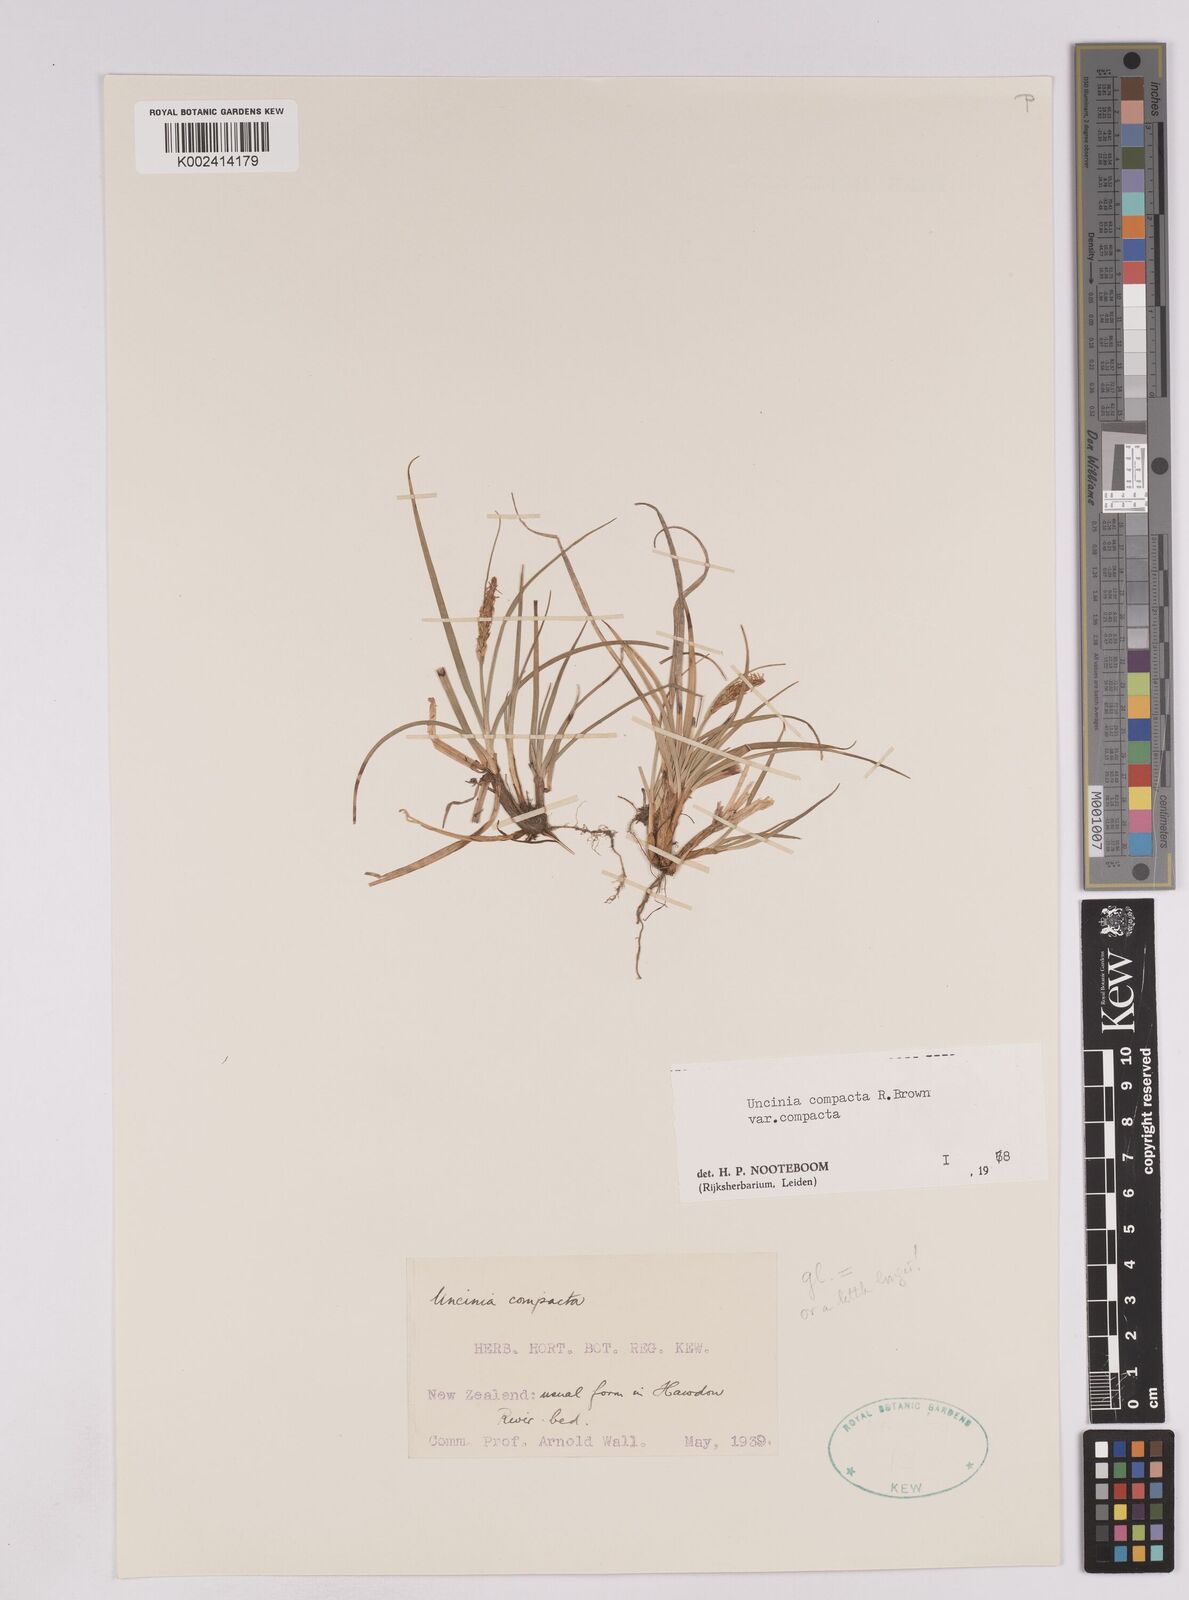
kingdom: Plantae
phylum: Tracheophyta
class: Liliopsida
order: Poales
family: Cyperaceae
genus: Carex
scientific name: Carex austrocompacta
